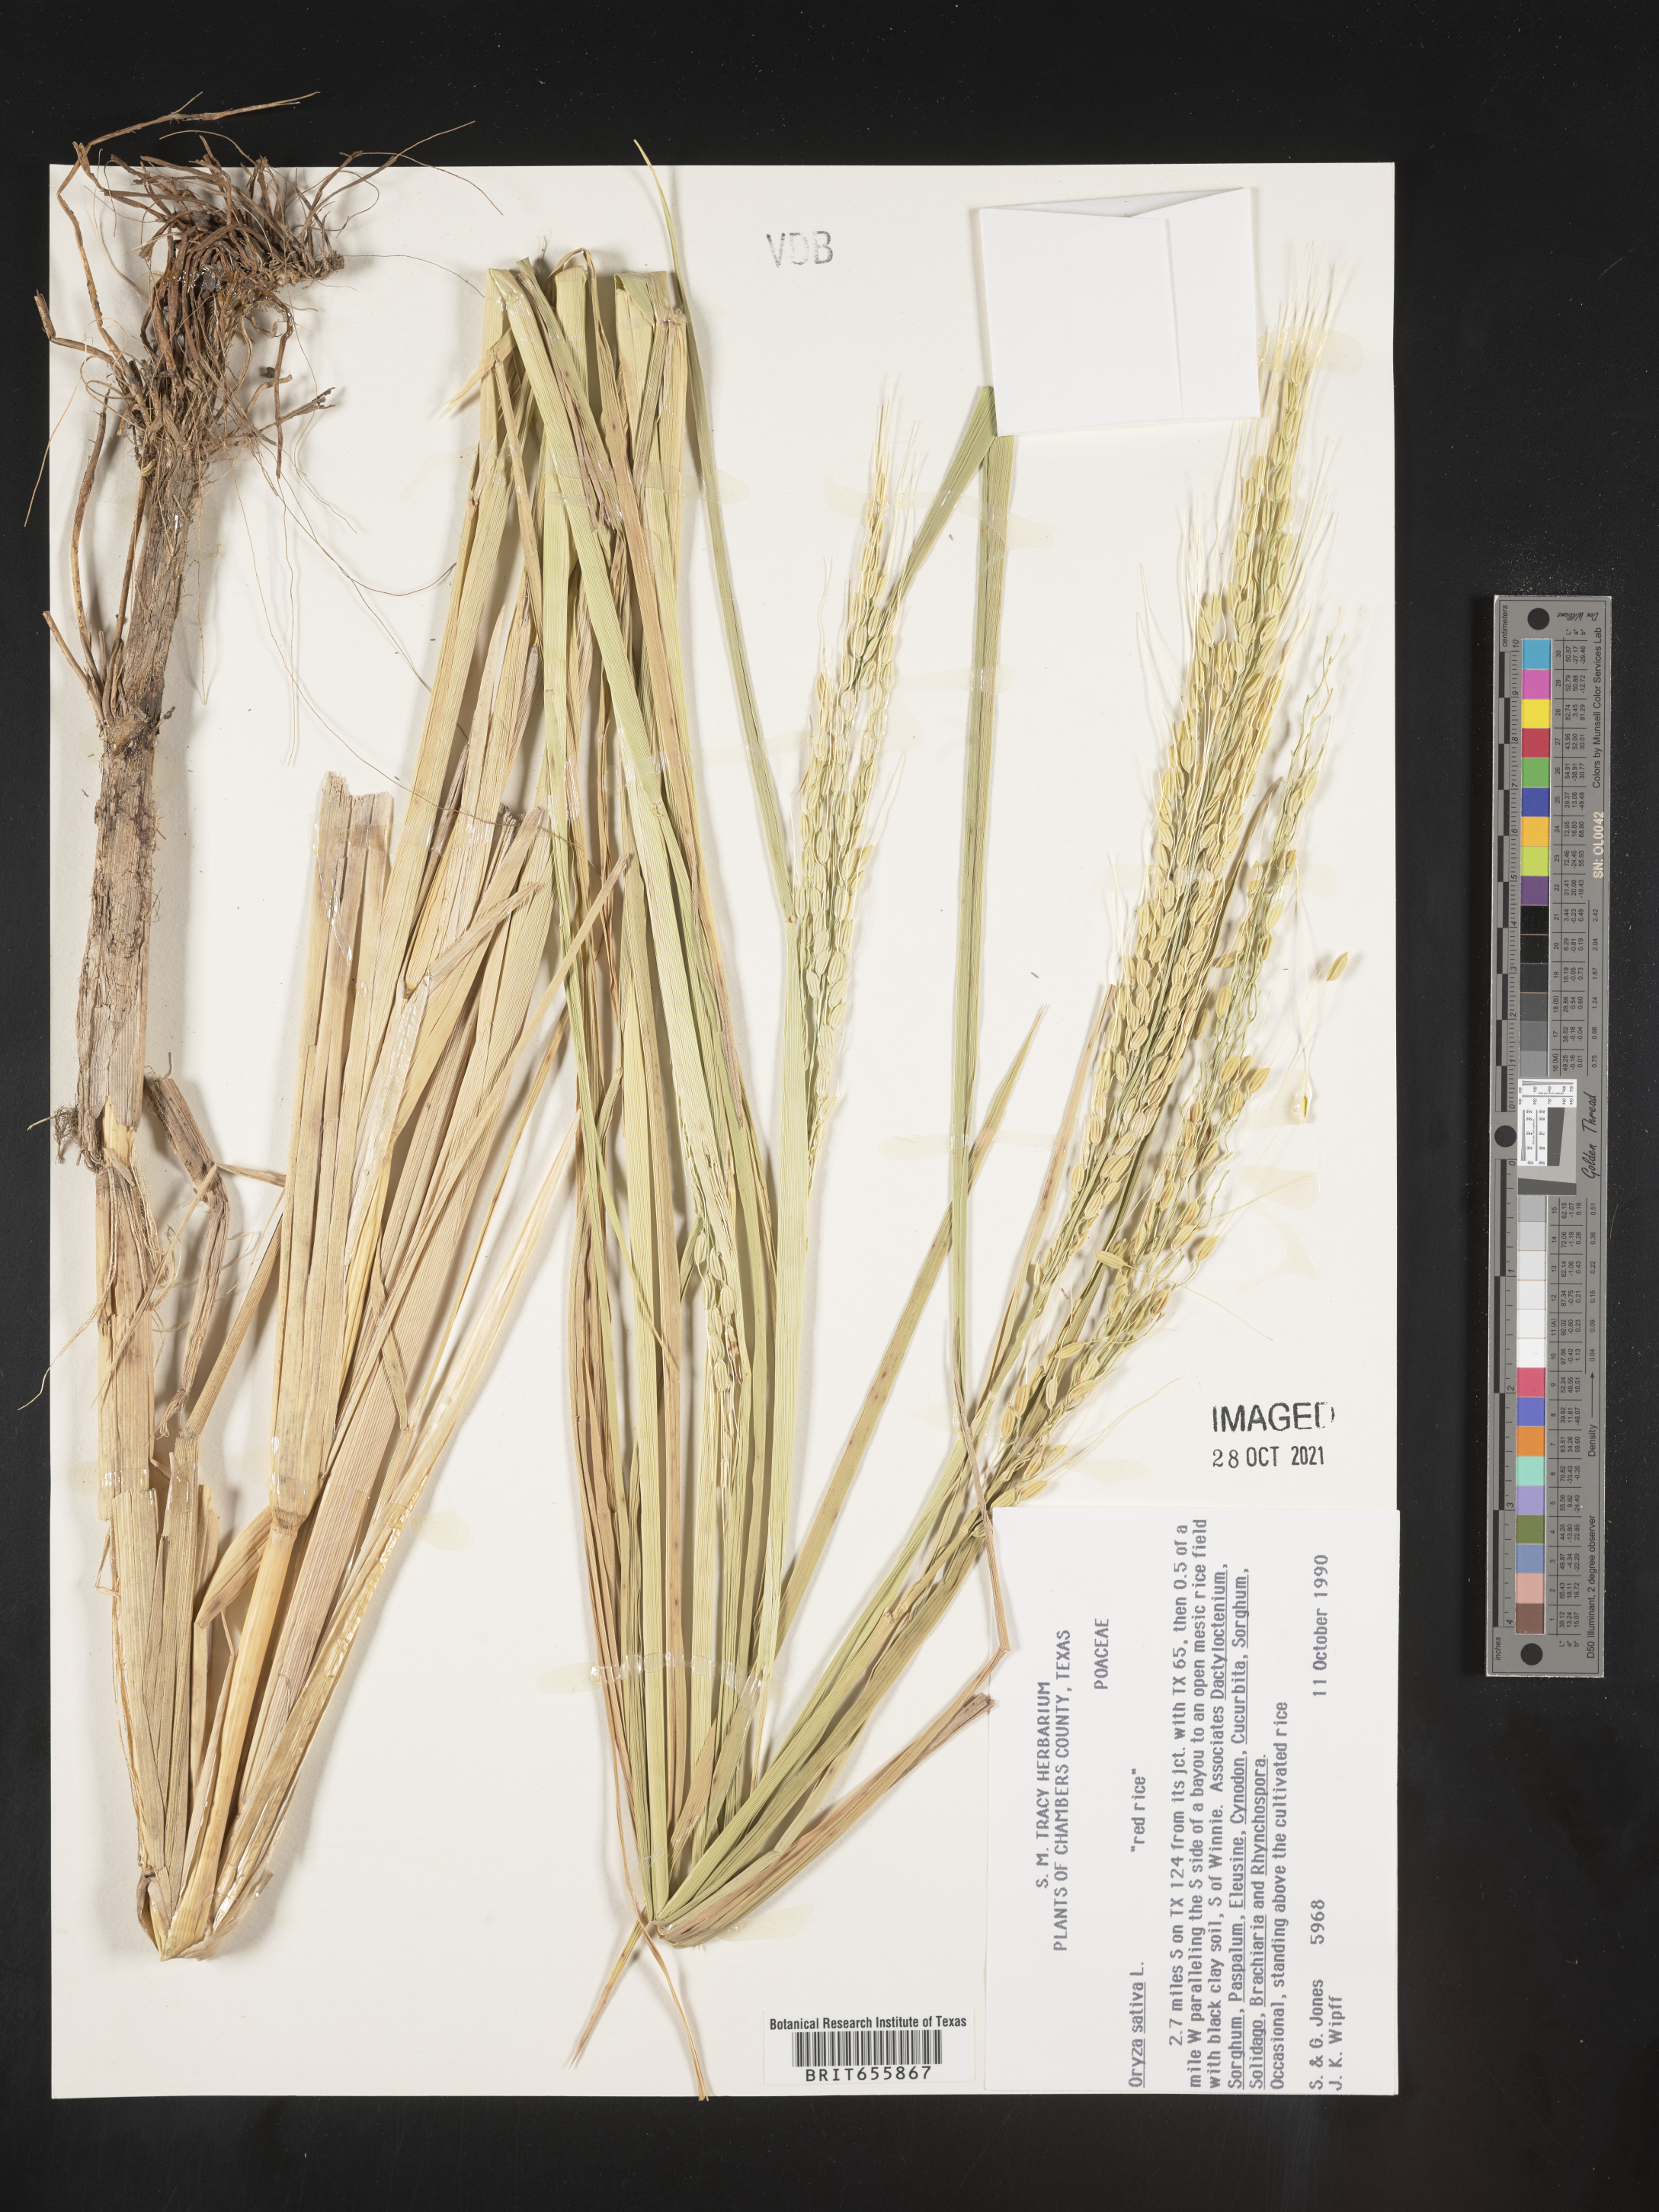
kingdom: Plantae
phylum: Tracheophyta
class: Liliopsida
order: Poales
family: Poaceae
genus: Oryza
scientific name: Oryza sativa
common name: Rice
